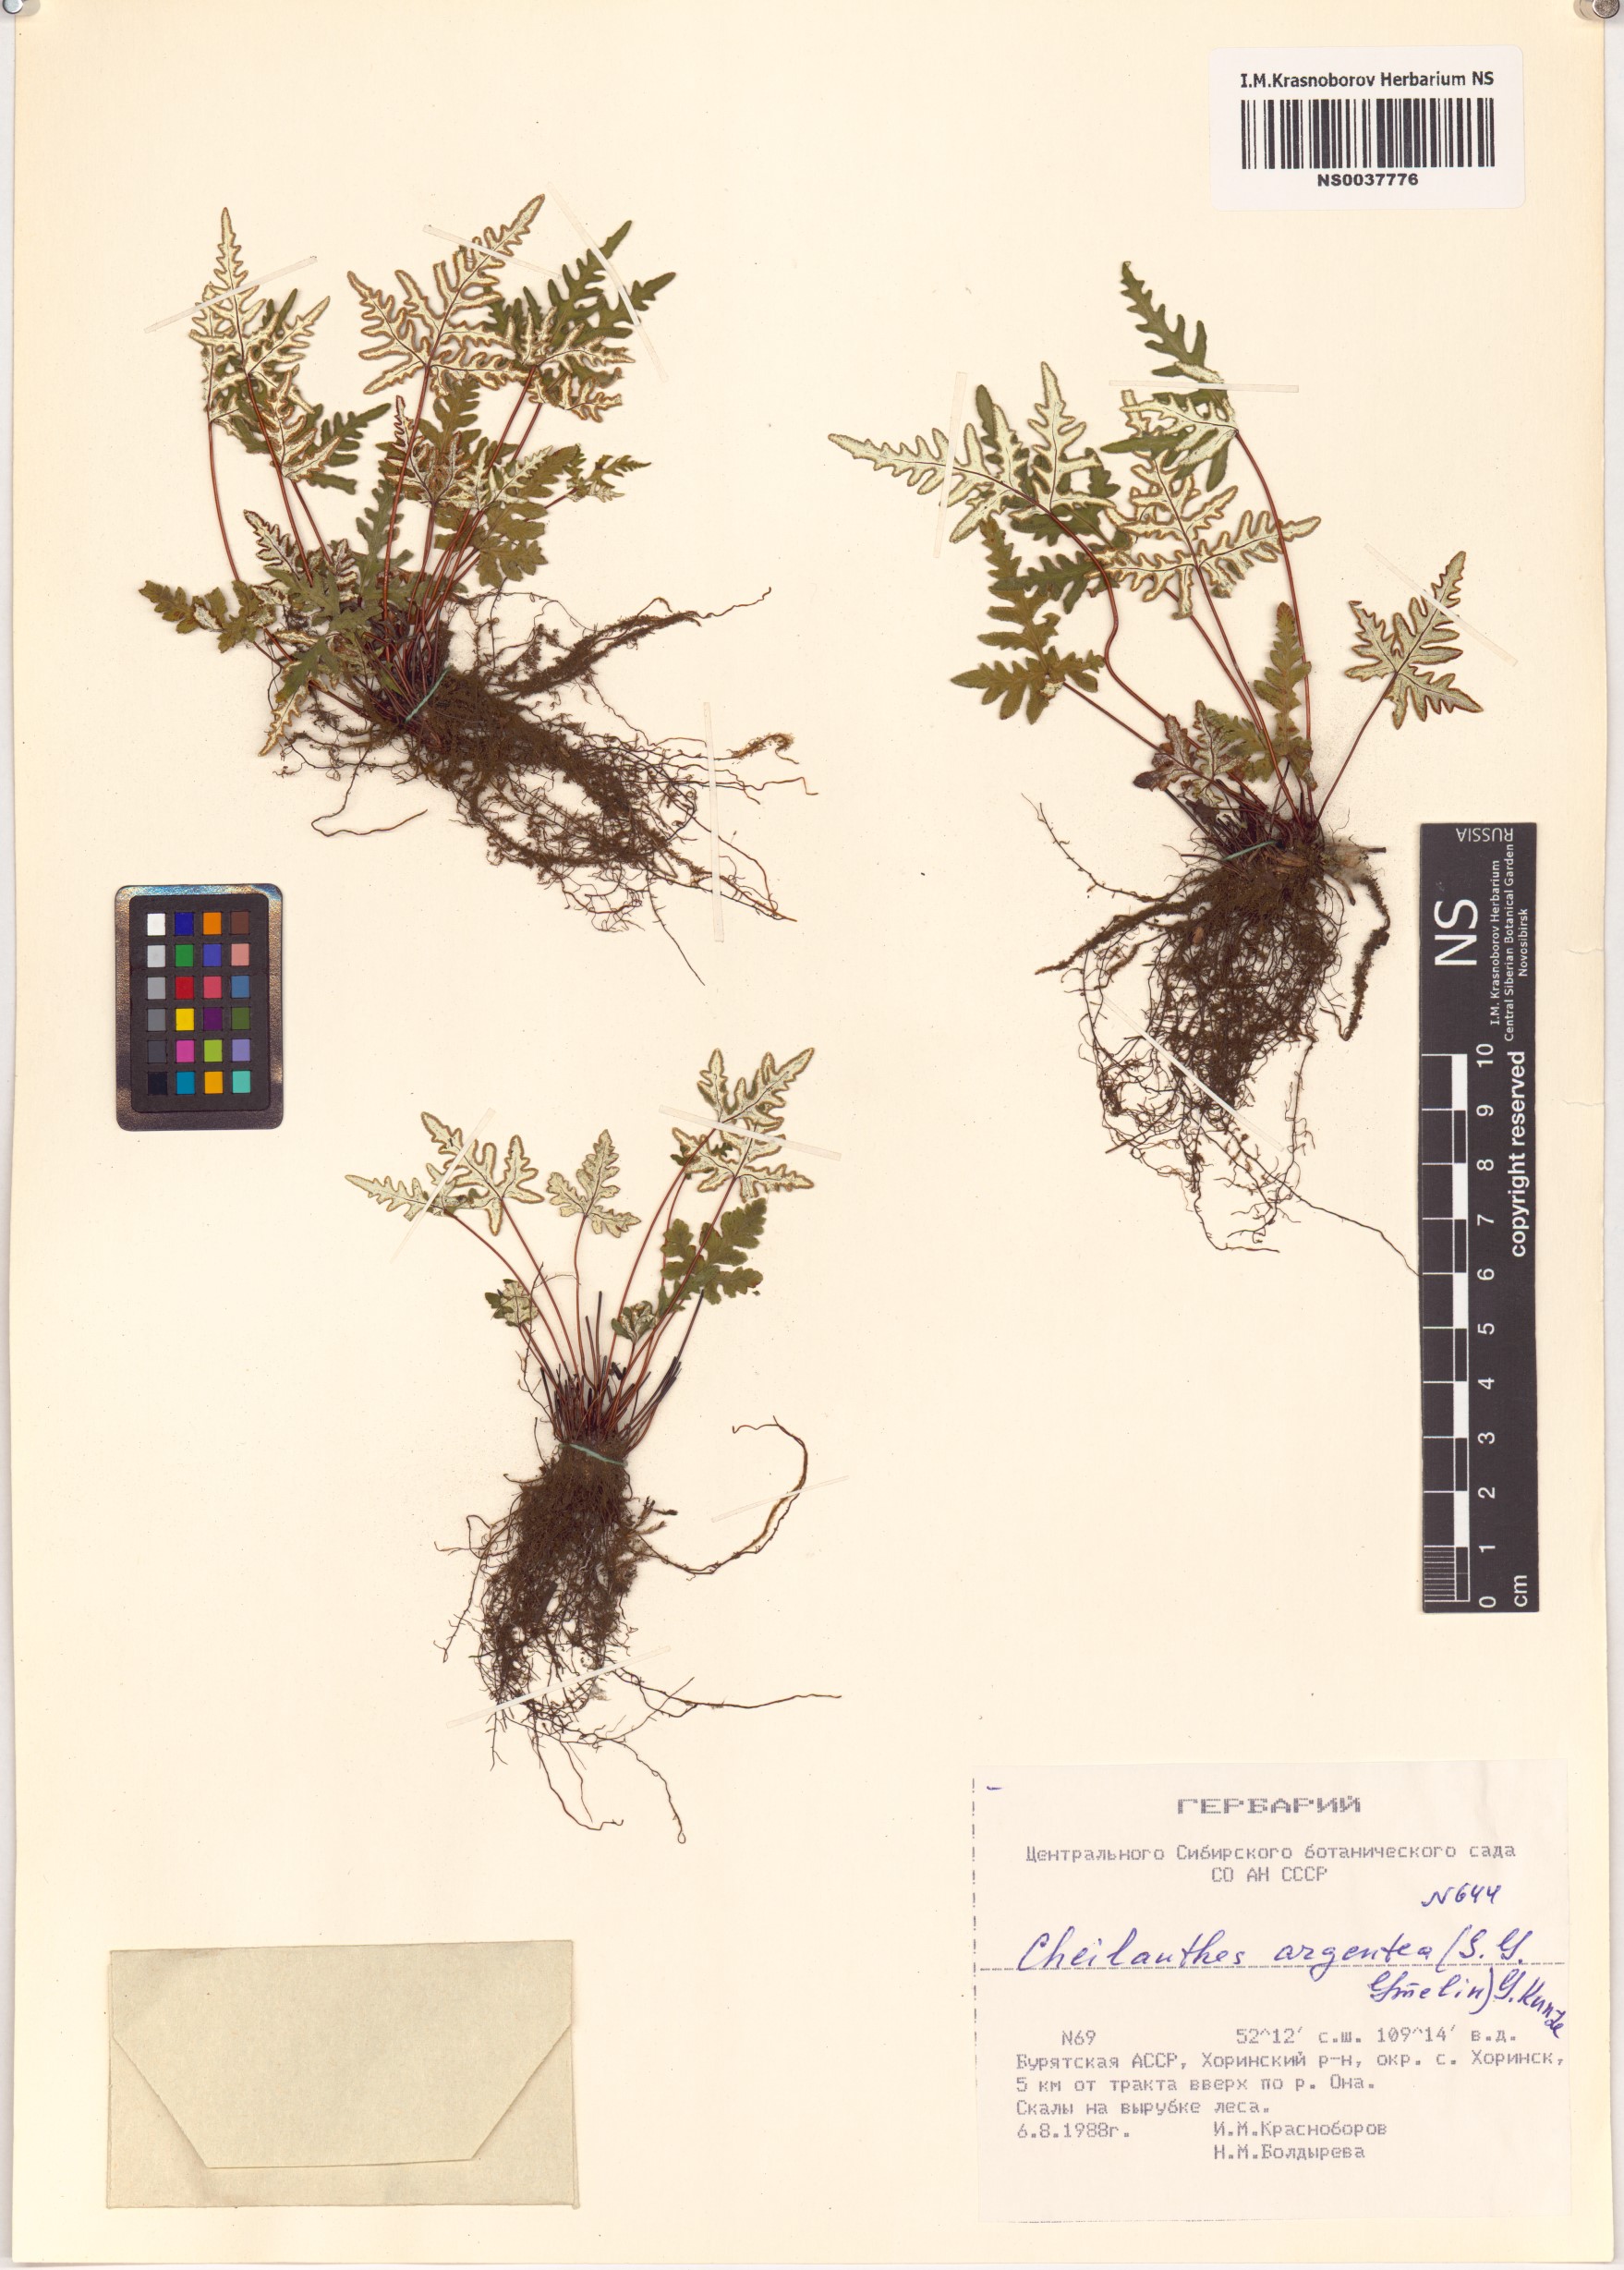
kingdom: Plantae
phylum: Tracheophyta
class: Polypodiopsida
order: Polypodiales
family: Pteridaceae
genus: Aleuritopteris
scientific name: Aleuritopteris argentea
